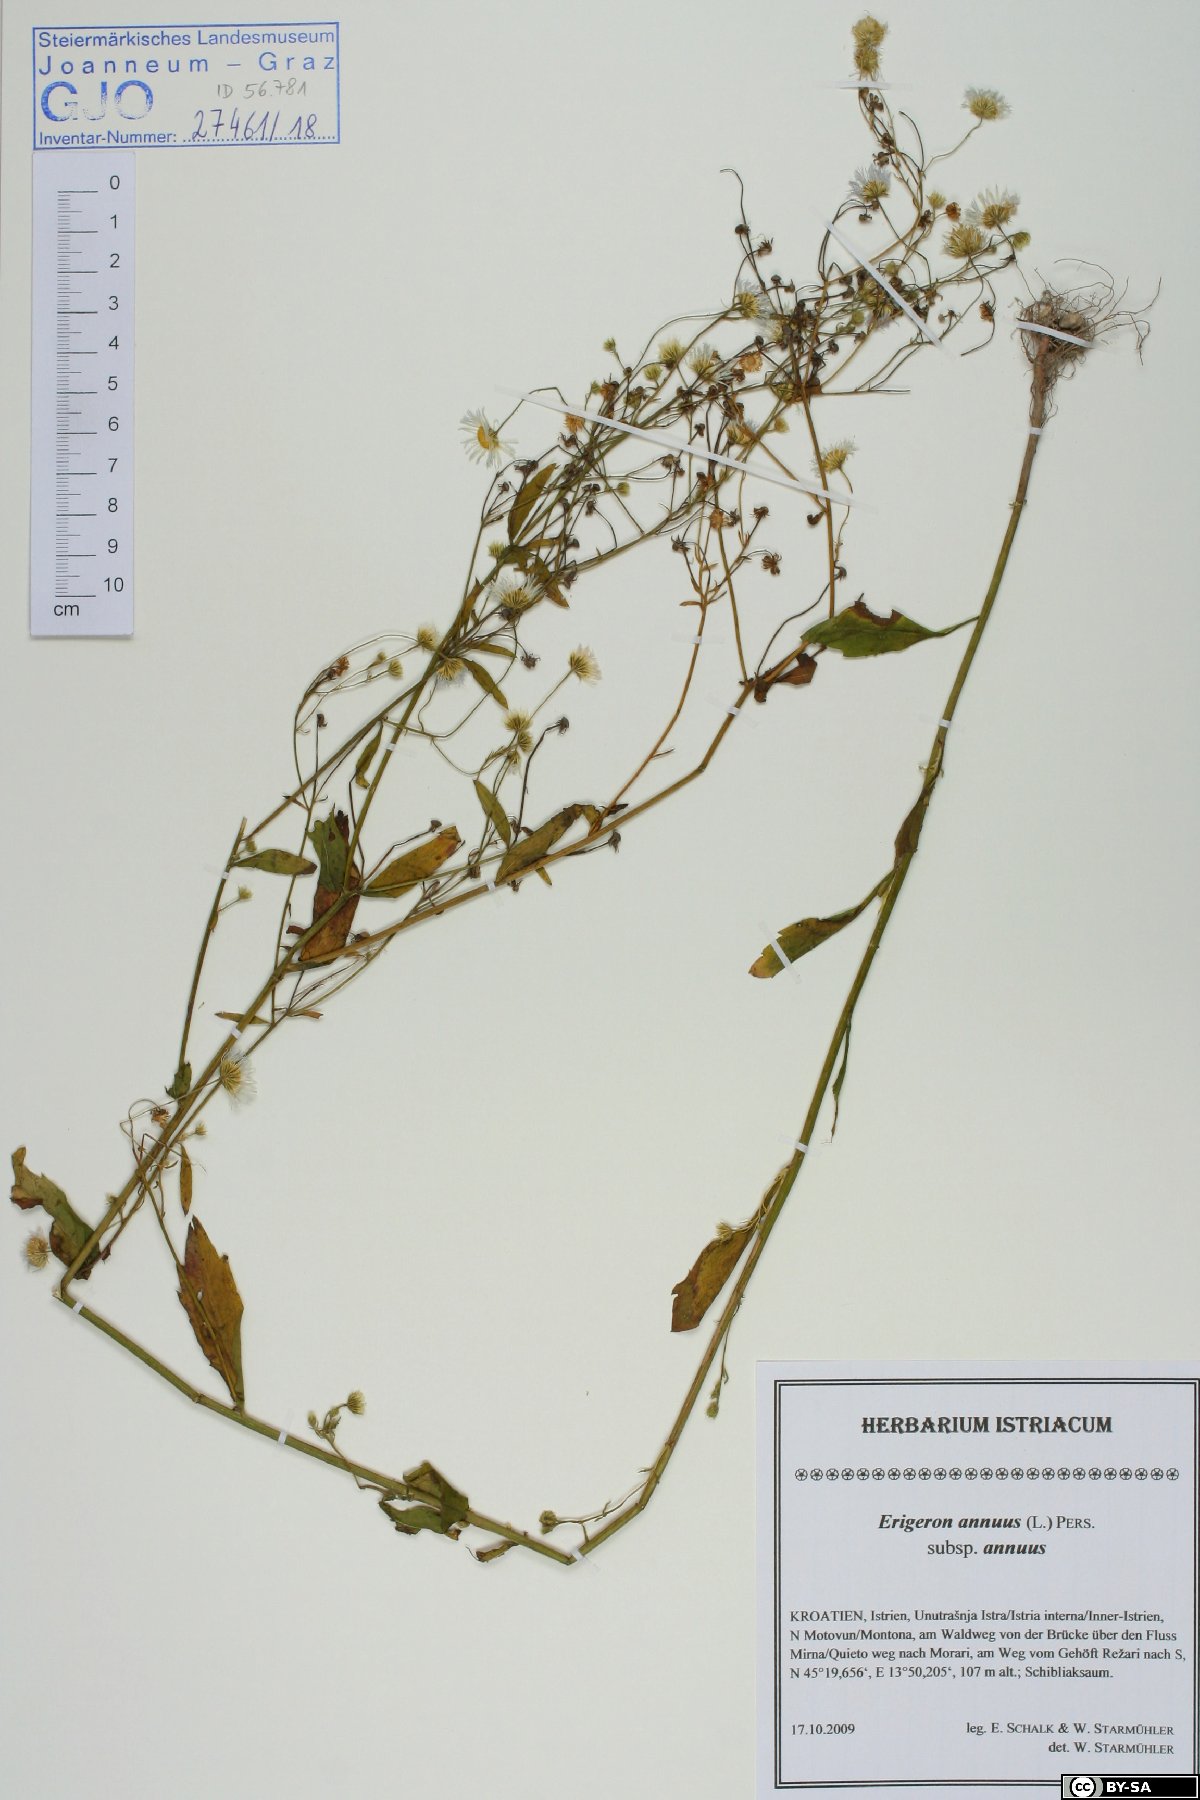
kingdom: Plantae
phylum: Tracheophyta
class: Magnoliopsida
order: Asterales
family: Asteraceae
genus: Erigeron
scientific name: Erigeron annuus
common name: Tall fleabane
